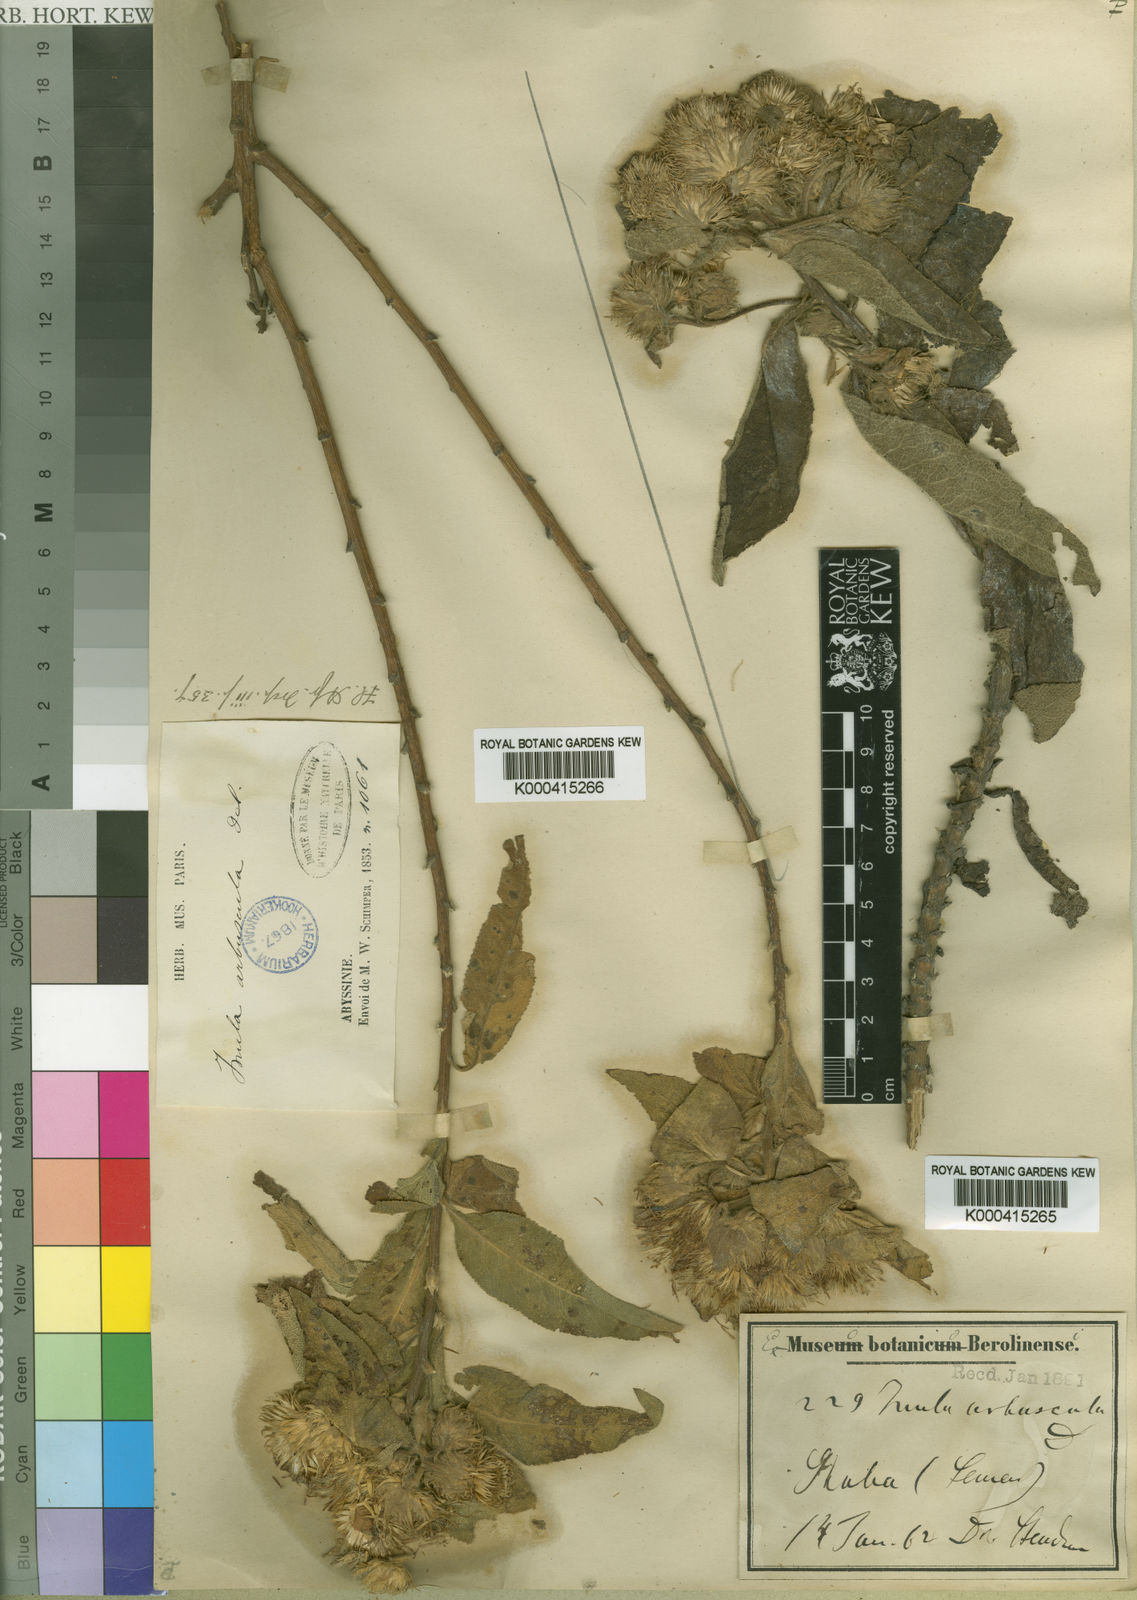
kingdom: Plantae
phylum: Tracheophyta
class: Magnoliopsida
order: Asterales
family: Asteraceae
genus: Inula
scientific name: Inula arbuscula
